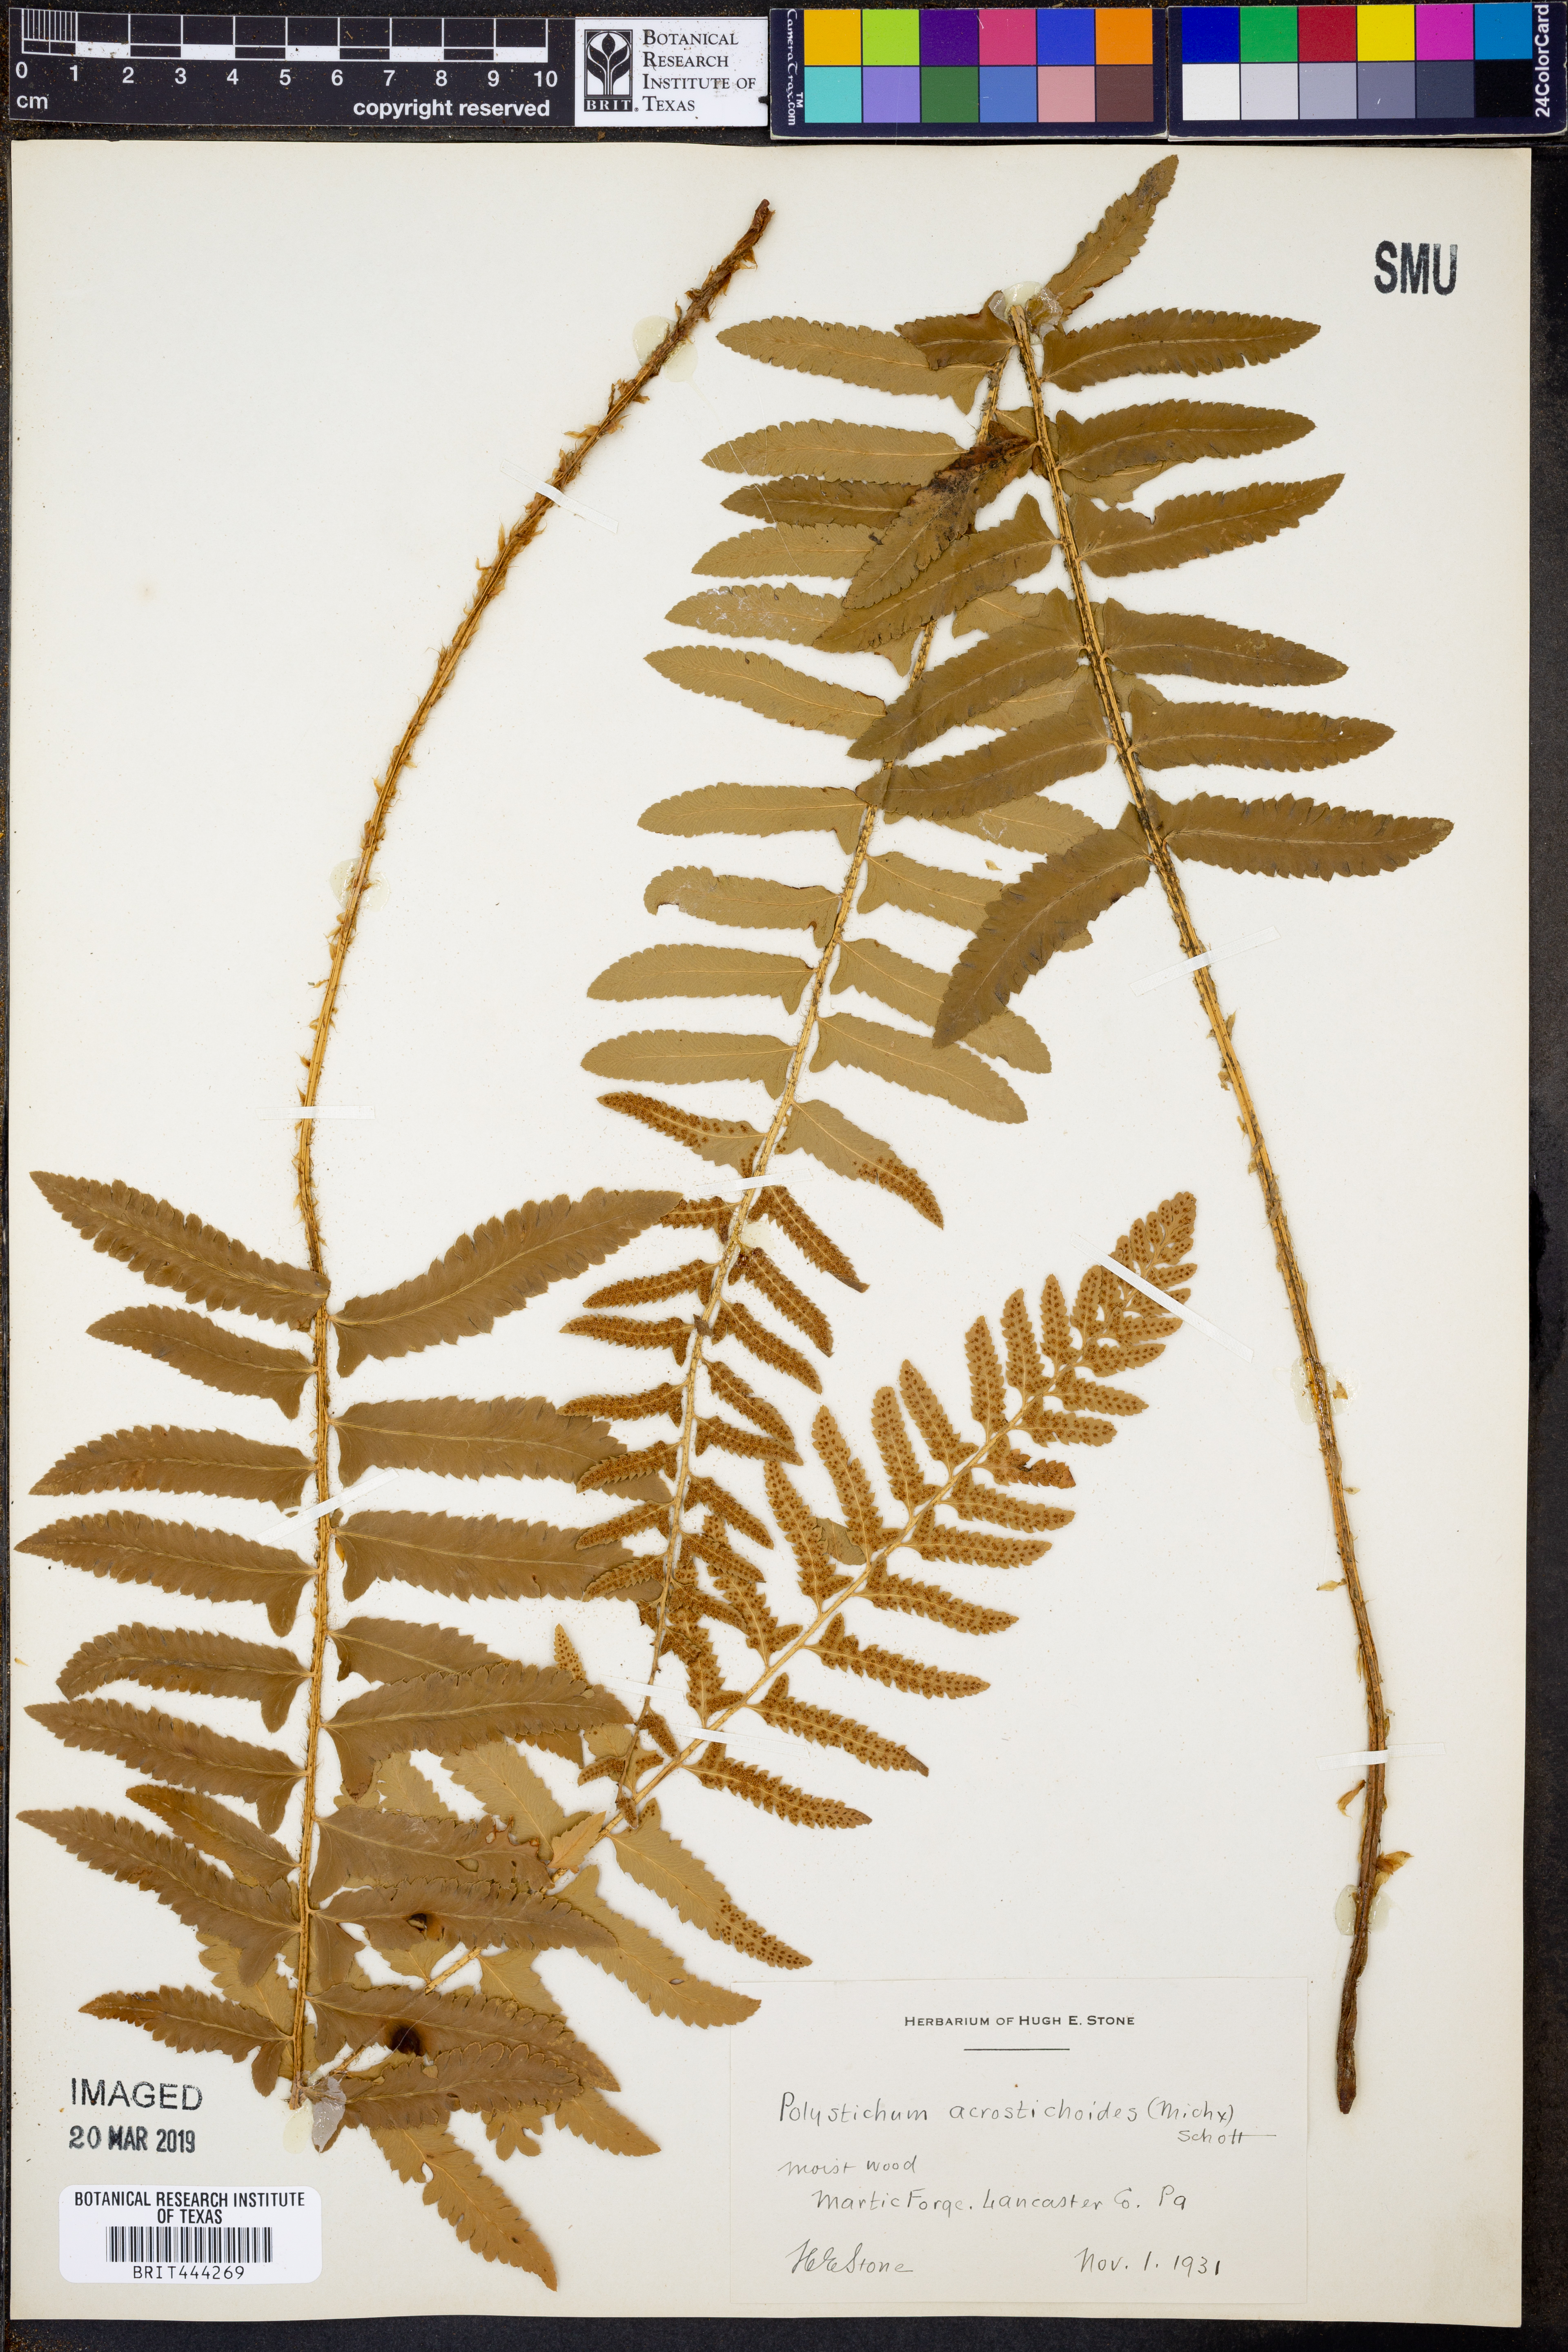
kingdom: Plantae
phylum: Tracheophyta
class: Polypodiopsida
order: Polypodiales
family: Dryopteridaceae
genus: Polystichum
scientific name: Polystichum acrostichoides
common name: Christmas fern
